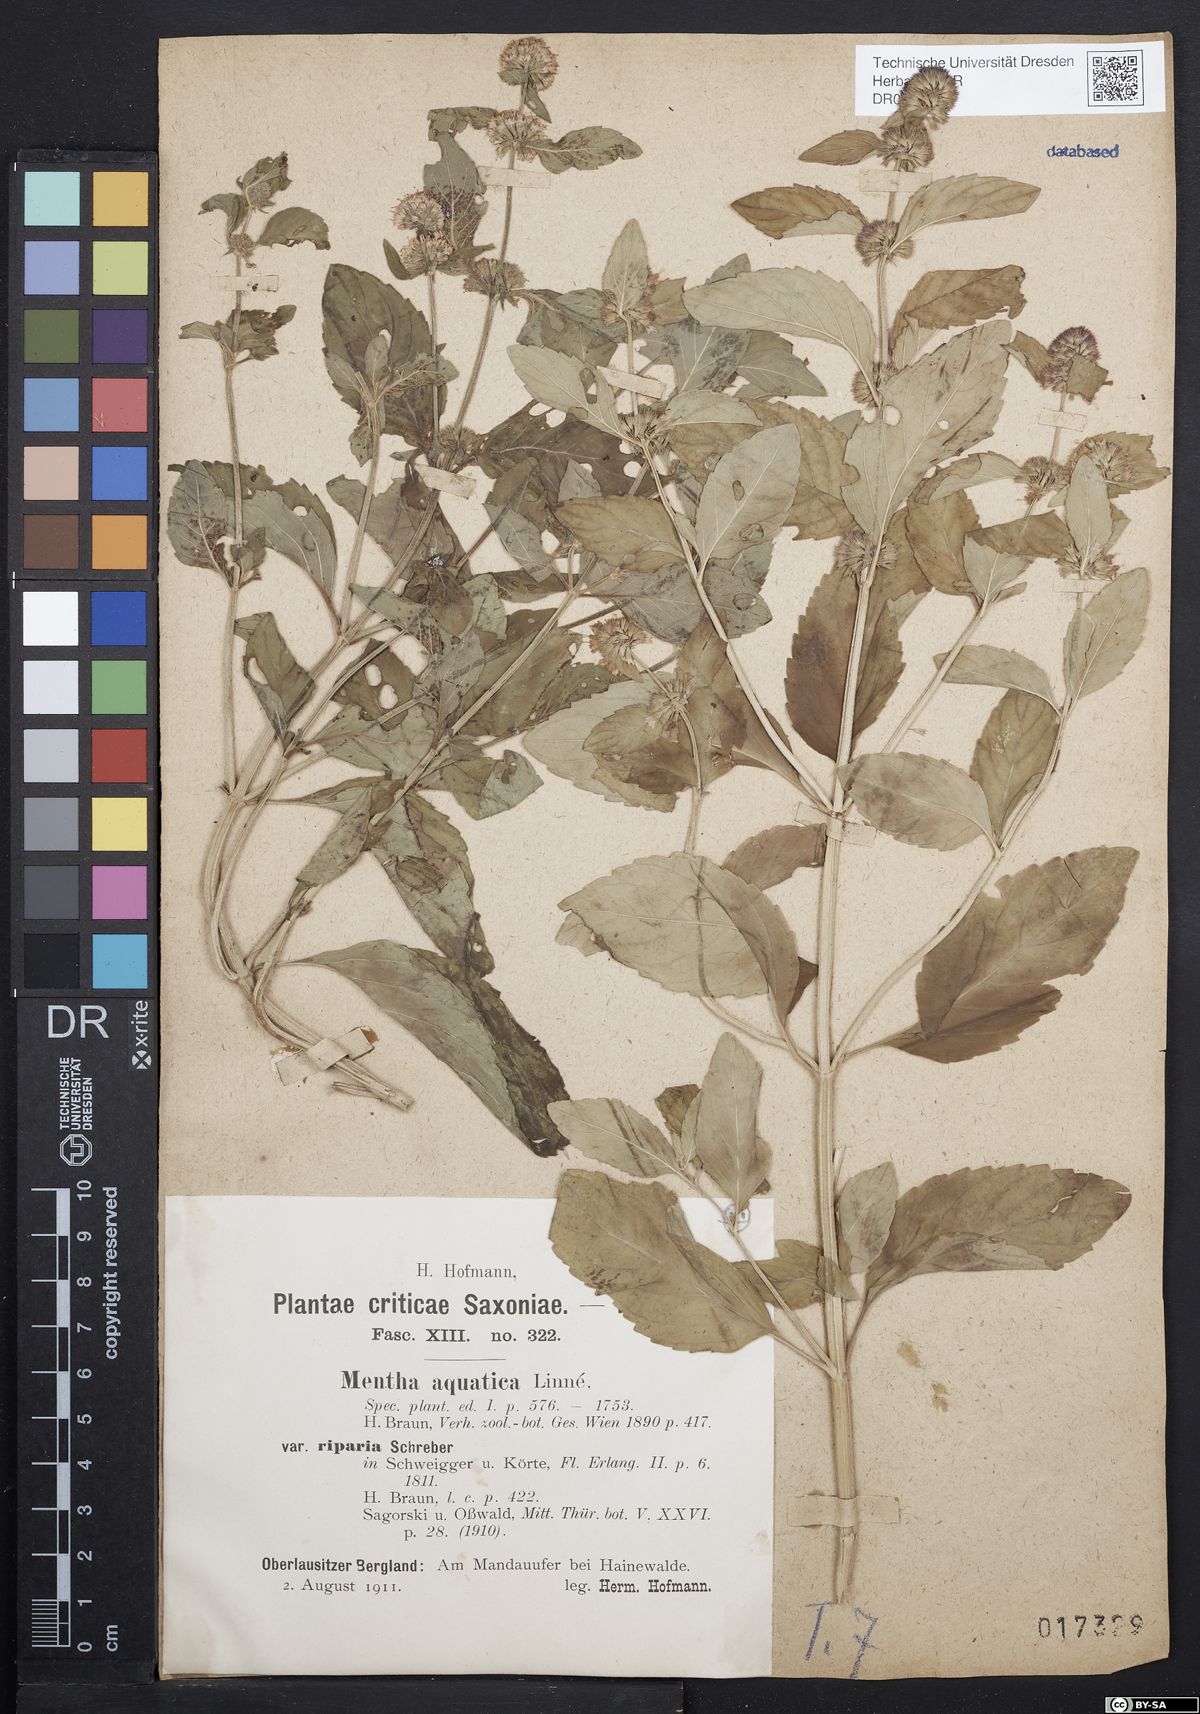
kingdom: Plantae
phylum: Tracheophyta
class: Magnoliopsida
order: Lamiales
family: Lamiaceae
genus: Mentha
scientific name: Mentha aquatica
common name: Water mint
